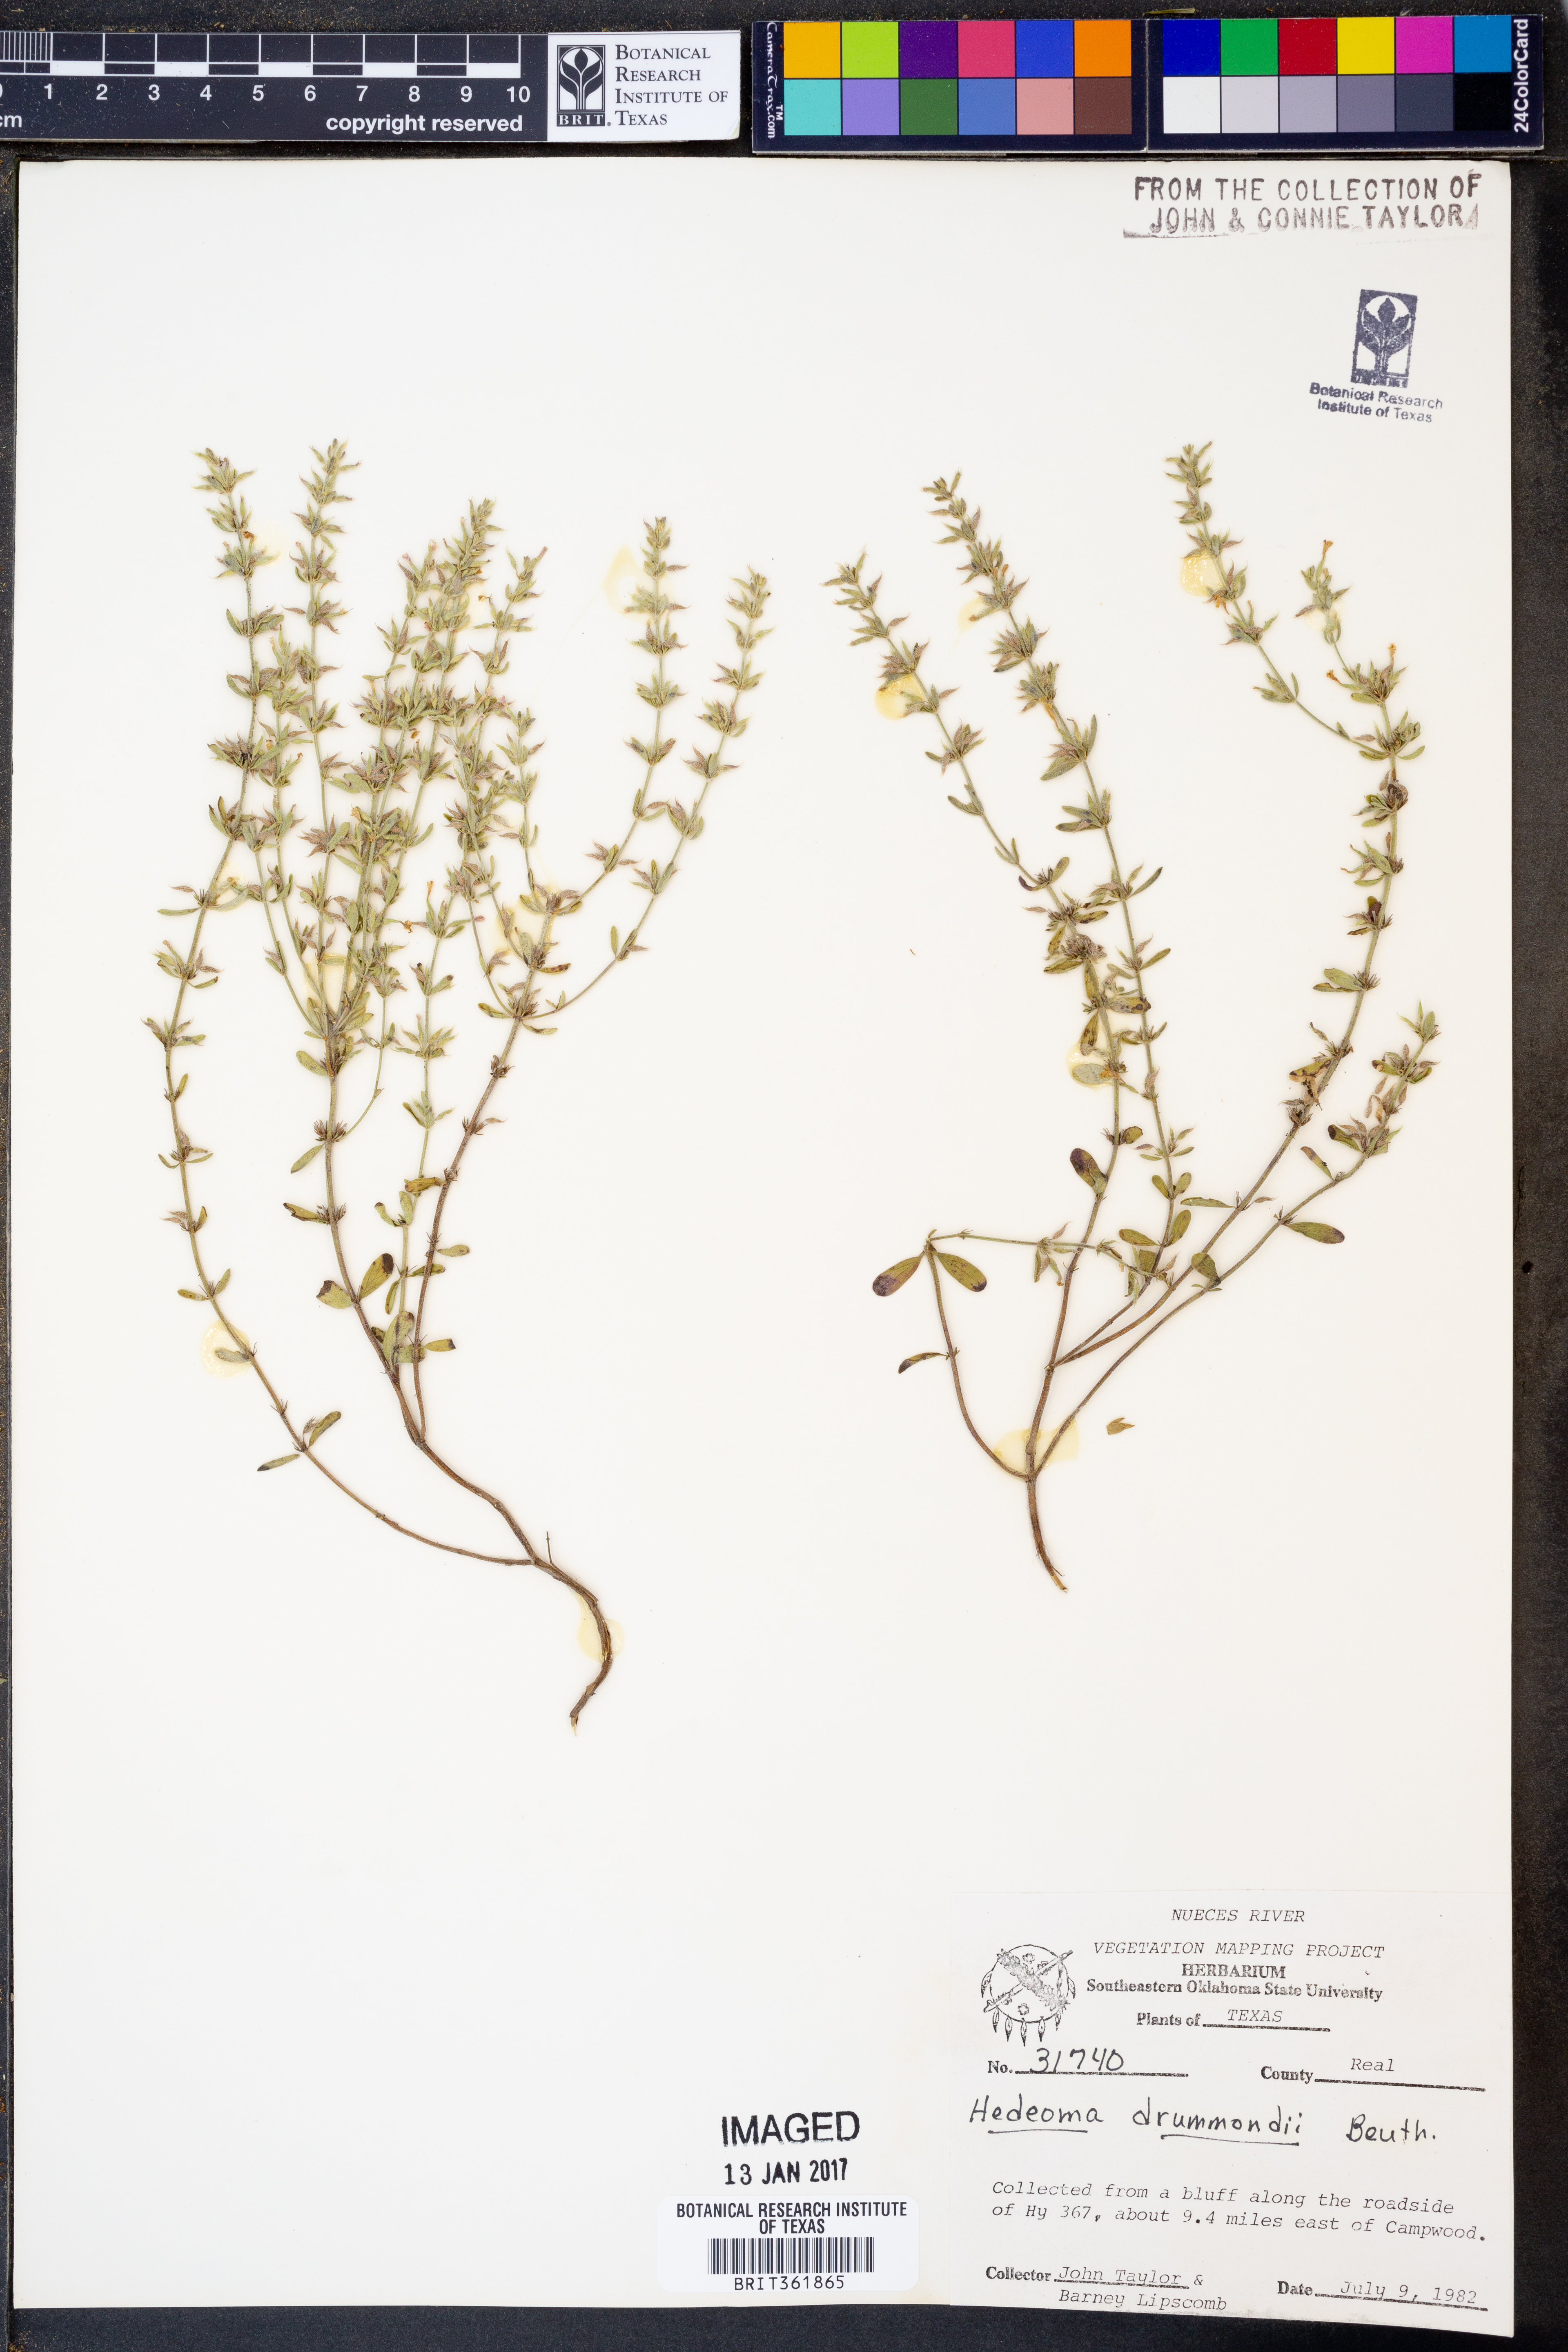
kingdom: Plantae
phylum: Tracheophyta
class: Magnoliopsida
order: Lamiales
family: Lamiaceae
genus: Hedeoma
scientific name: Hedeoma drummondii
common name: New mexico pennyroyal
